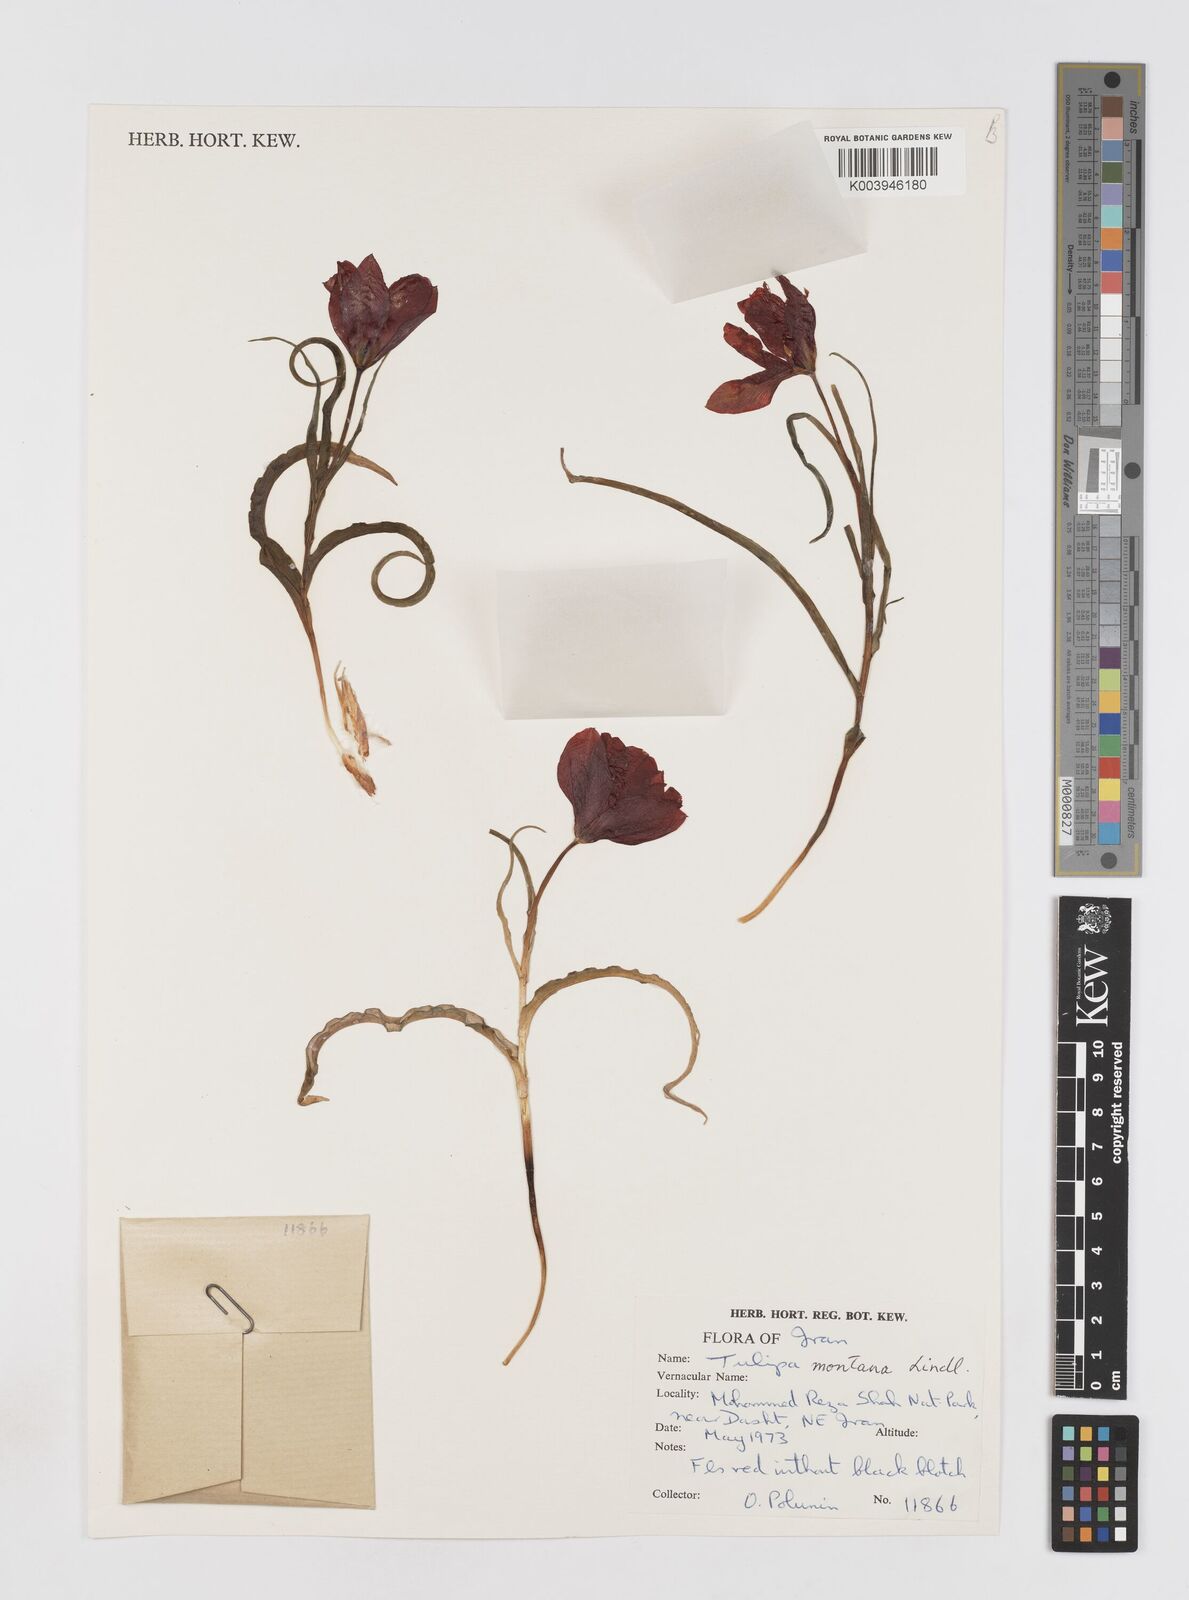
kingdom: Plantae
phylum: Tracheophyta
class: Liliopsida
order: Liliales
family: Liliaceae
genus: Tulipa
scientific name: Tulipa montana
